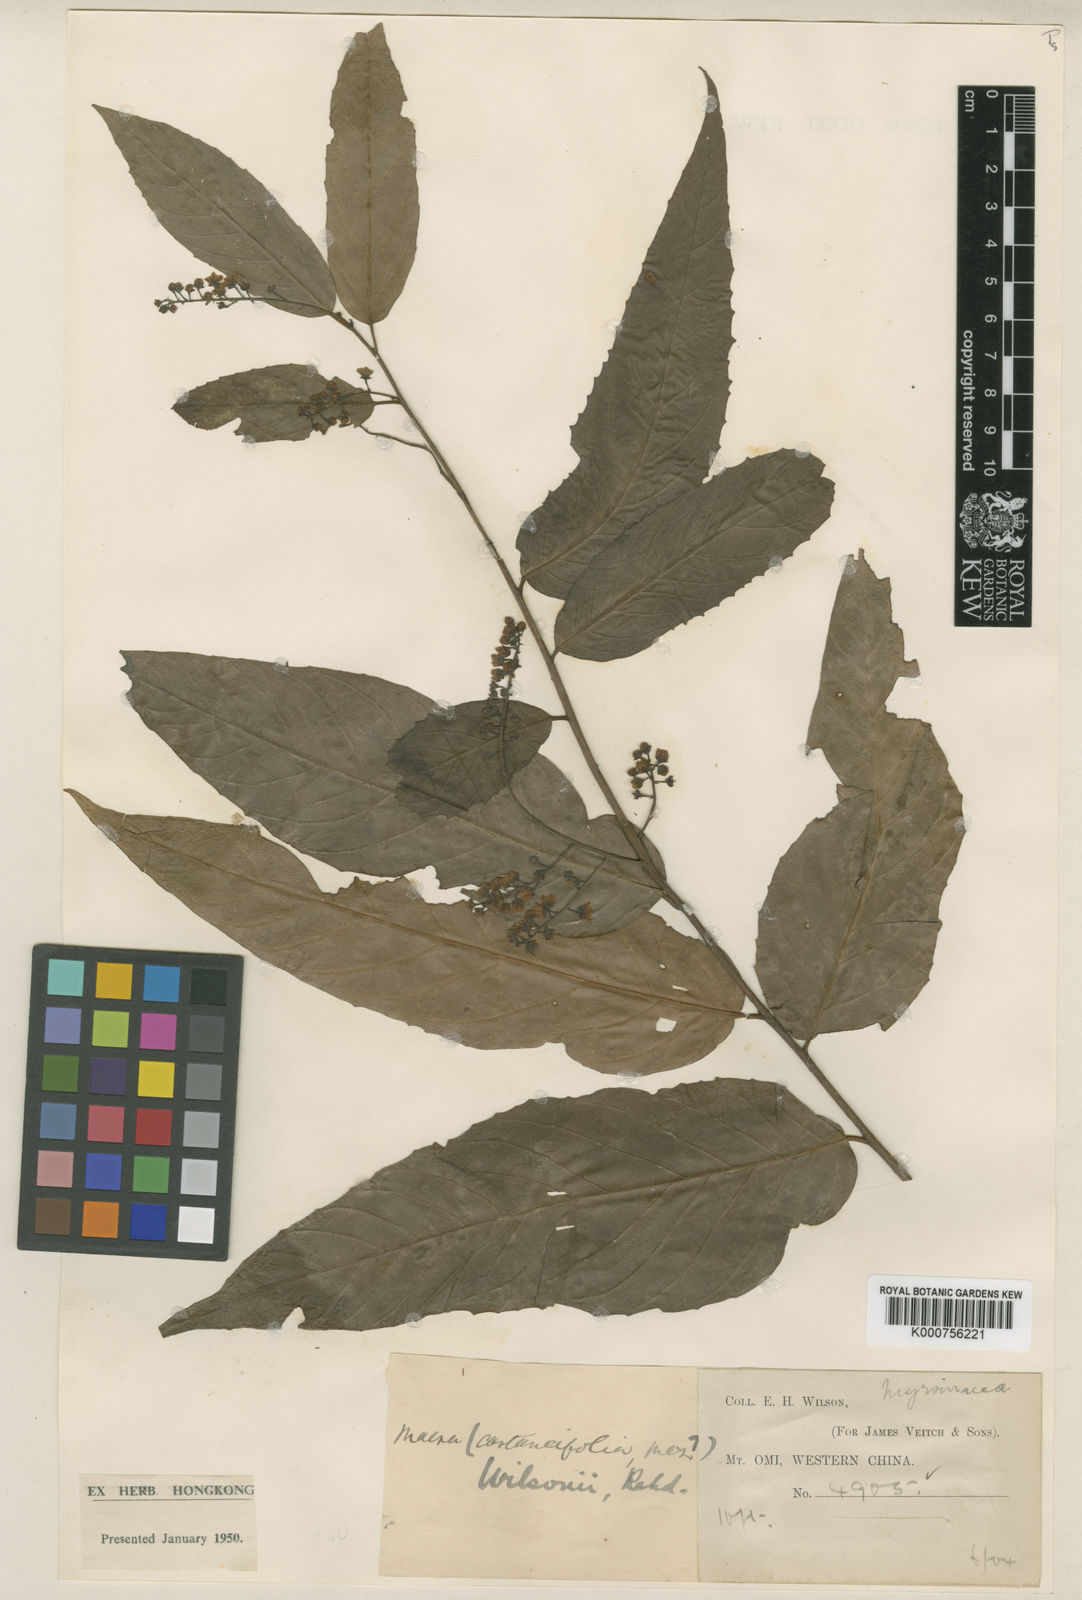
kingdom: Plantae
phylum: Tracheophyta
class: Magnoliopsida
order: Ericales
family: Primulaceae
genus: Maesa
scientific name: Maesa hupehensis
